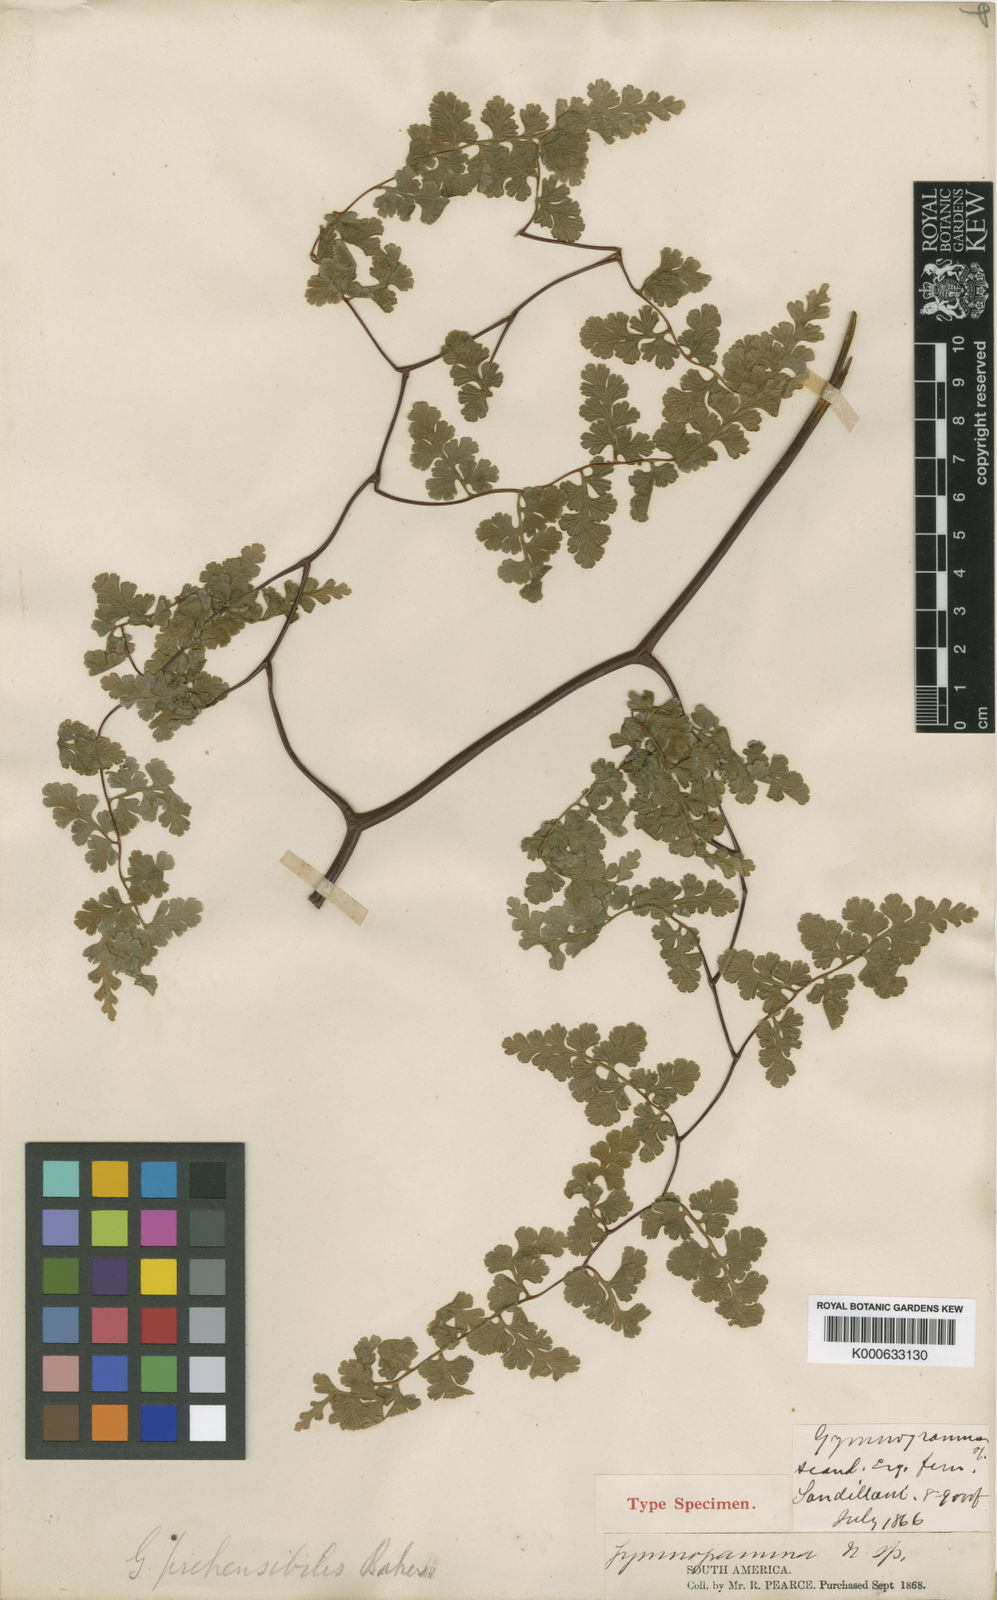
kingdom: Plantae
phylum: Tracheophyta
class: Polypodiopsida
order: Polypodiales
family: Pteridaceae
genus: Jamesonia
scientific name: Jamesonia
